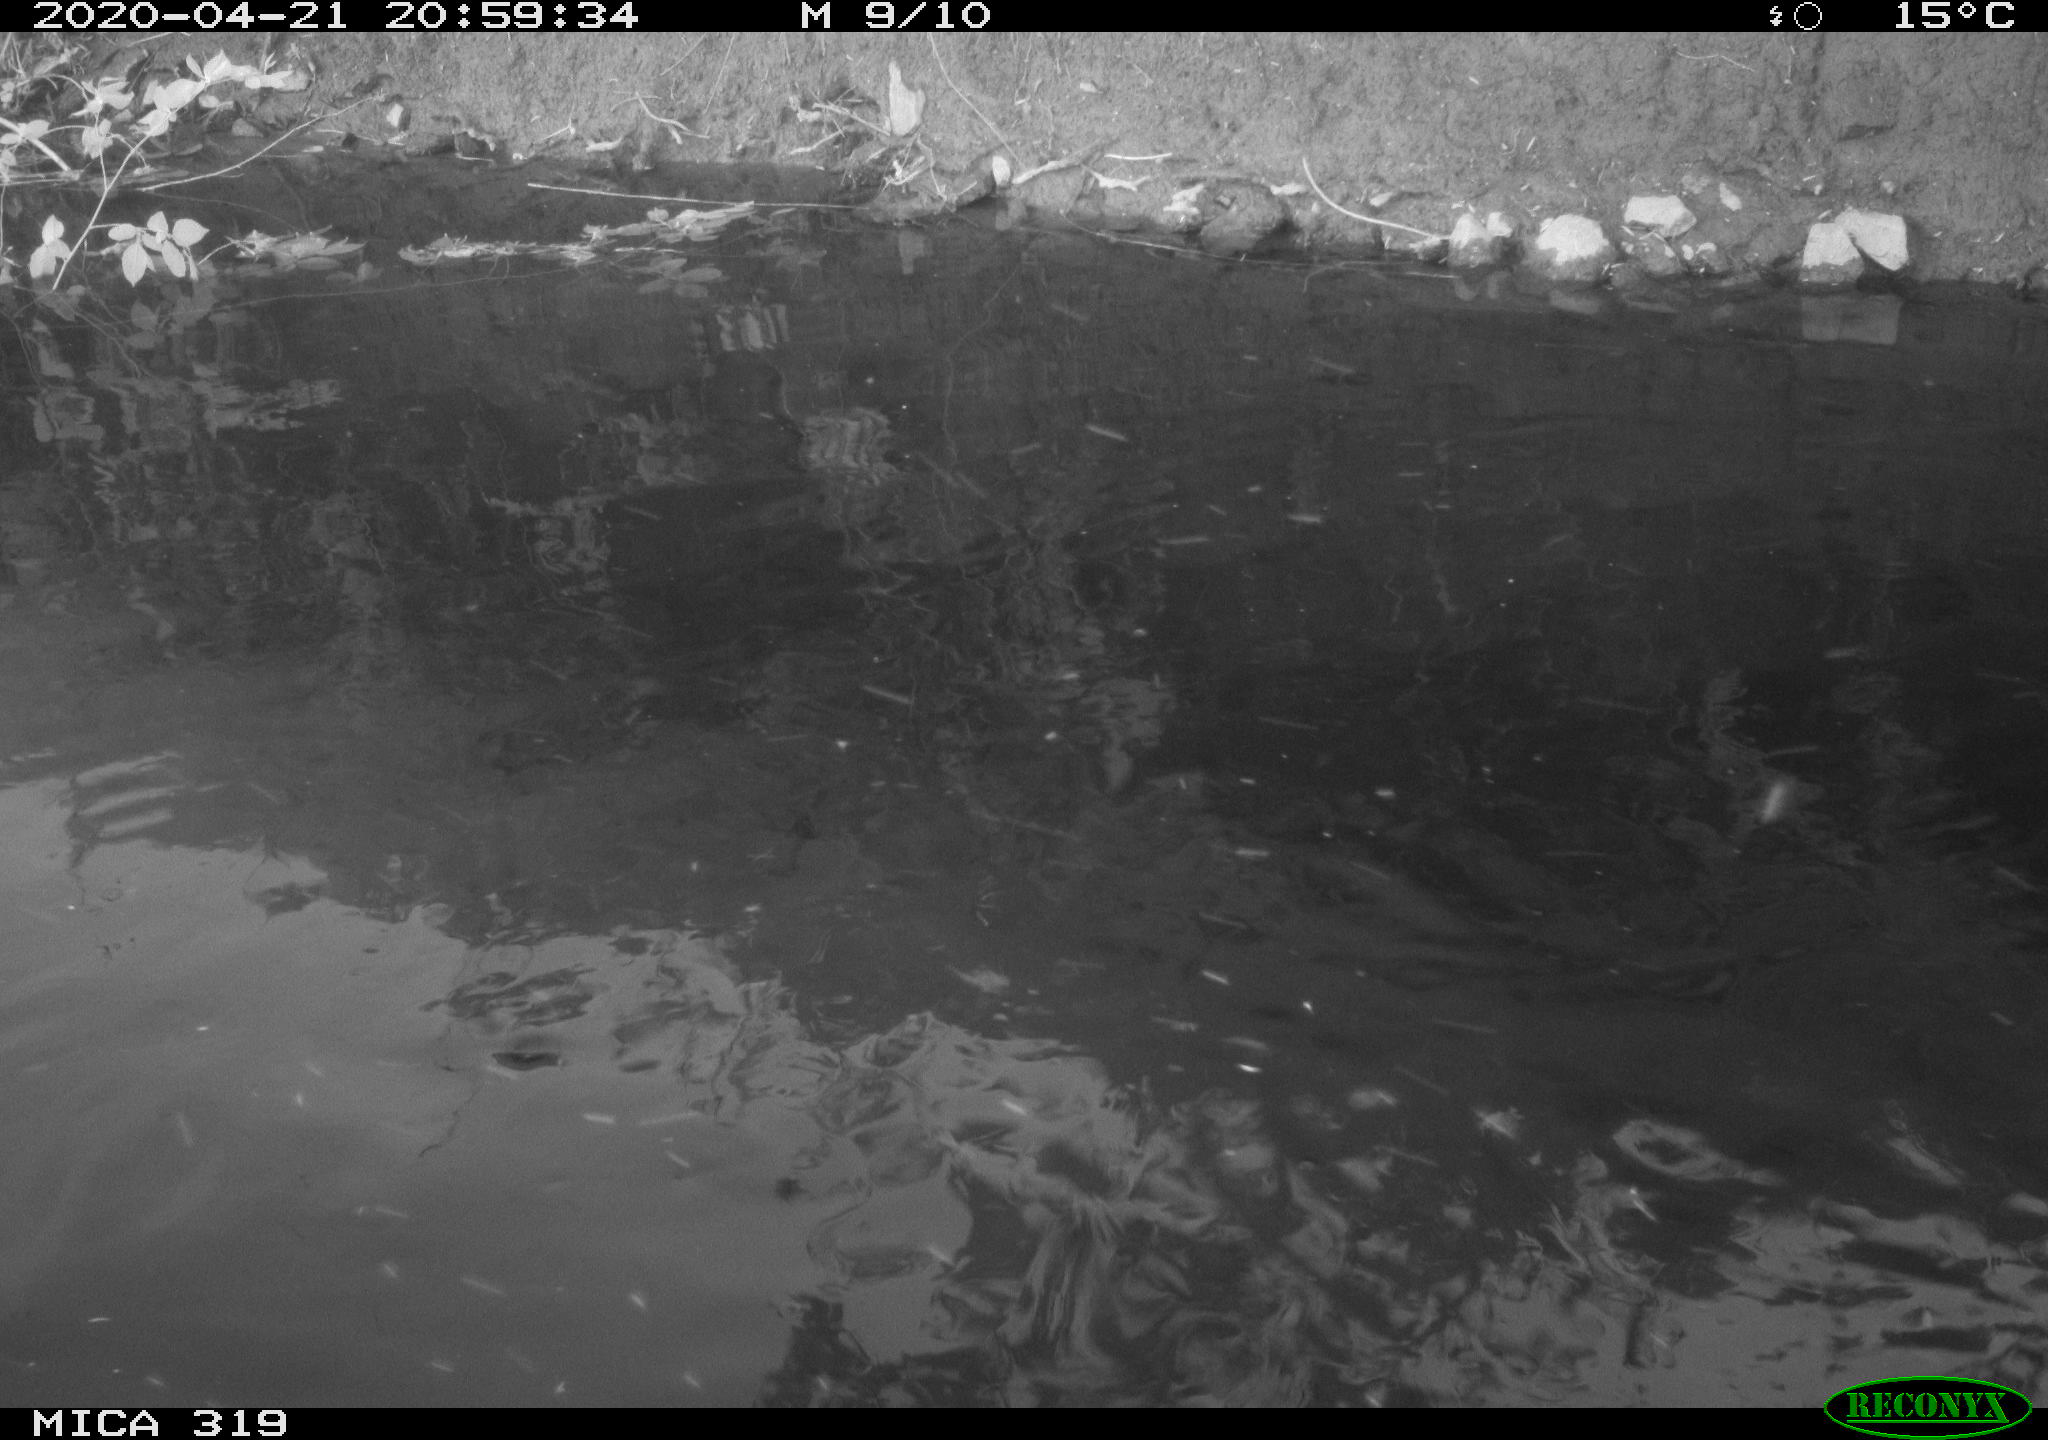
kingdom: Animalia
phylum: Chordata
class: Aves
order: Anseriformes
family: Anatidae
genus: Anas
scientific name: Anas platyrhynchos
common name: Mallard
